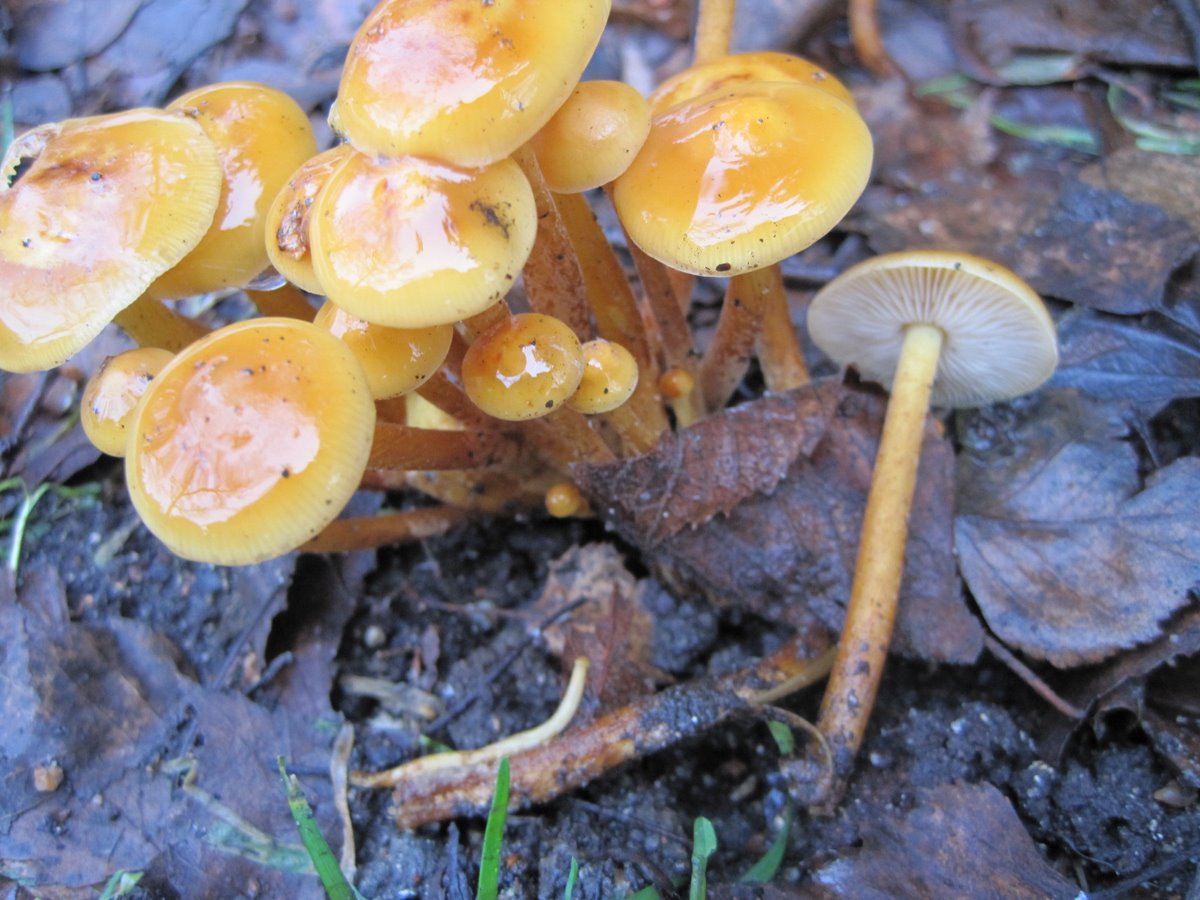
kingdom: Fungi
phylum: Basidiomycota
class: Agaricomycetes
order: Agaricales
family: Physalacriaceae
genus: Flammulina
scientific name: Flammulina velutipes
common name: gul fløjlsfod
